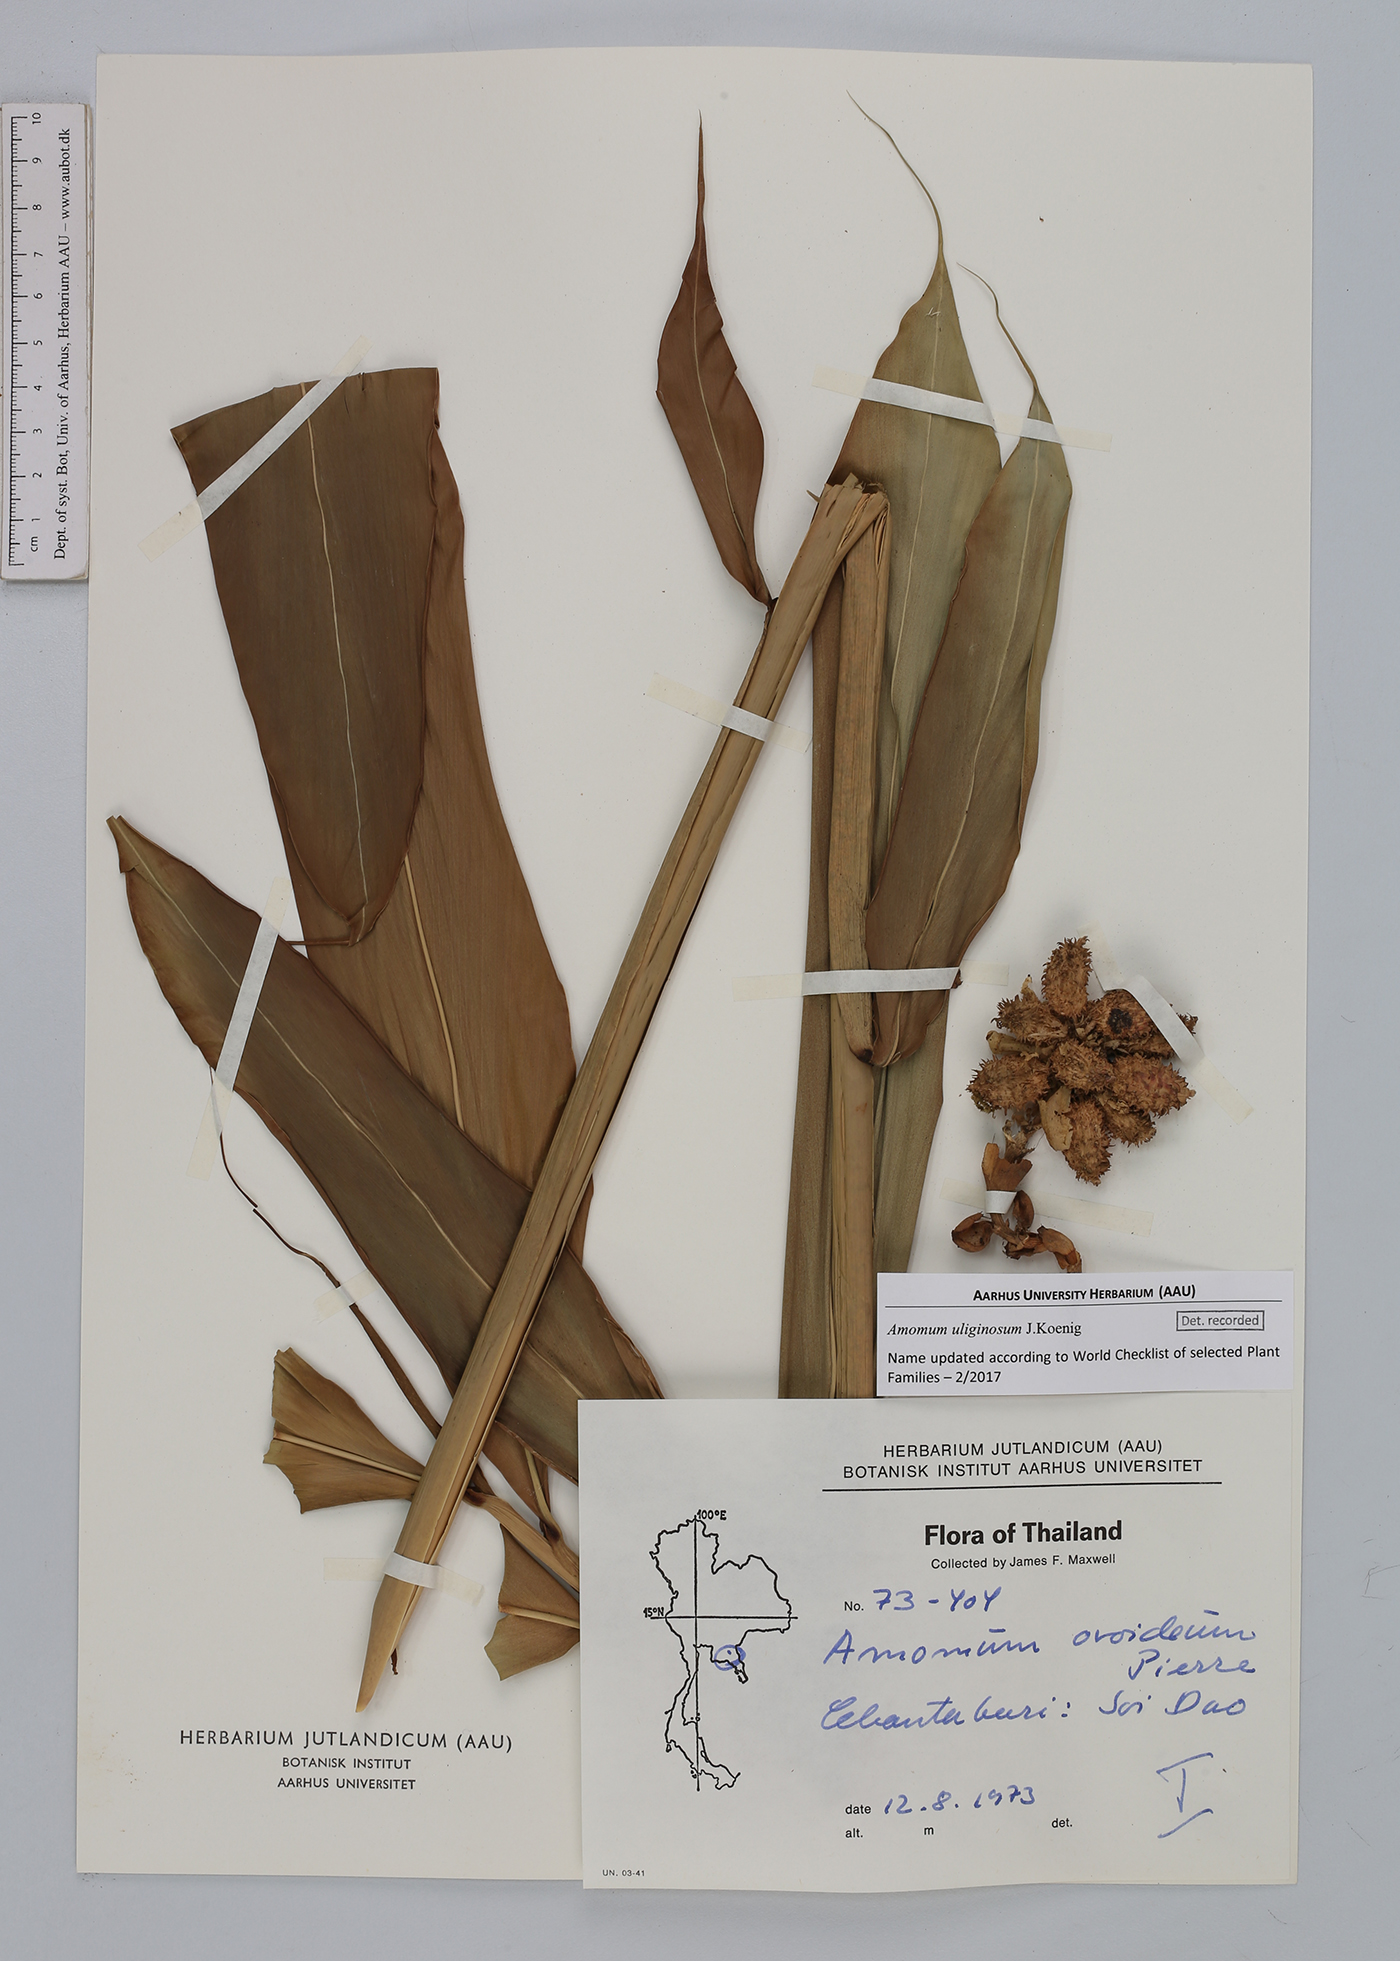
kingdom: Plantae
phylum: Tracheophyta
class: Liliopsida
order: Zingiberales
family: Zingiberaceae
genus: Wurfbainia
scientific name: Wurfbainia uliginosa
